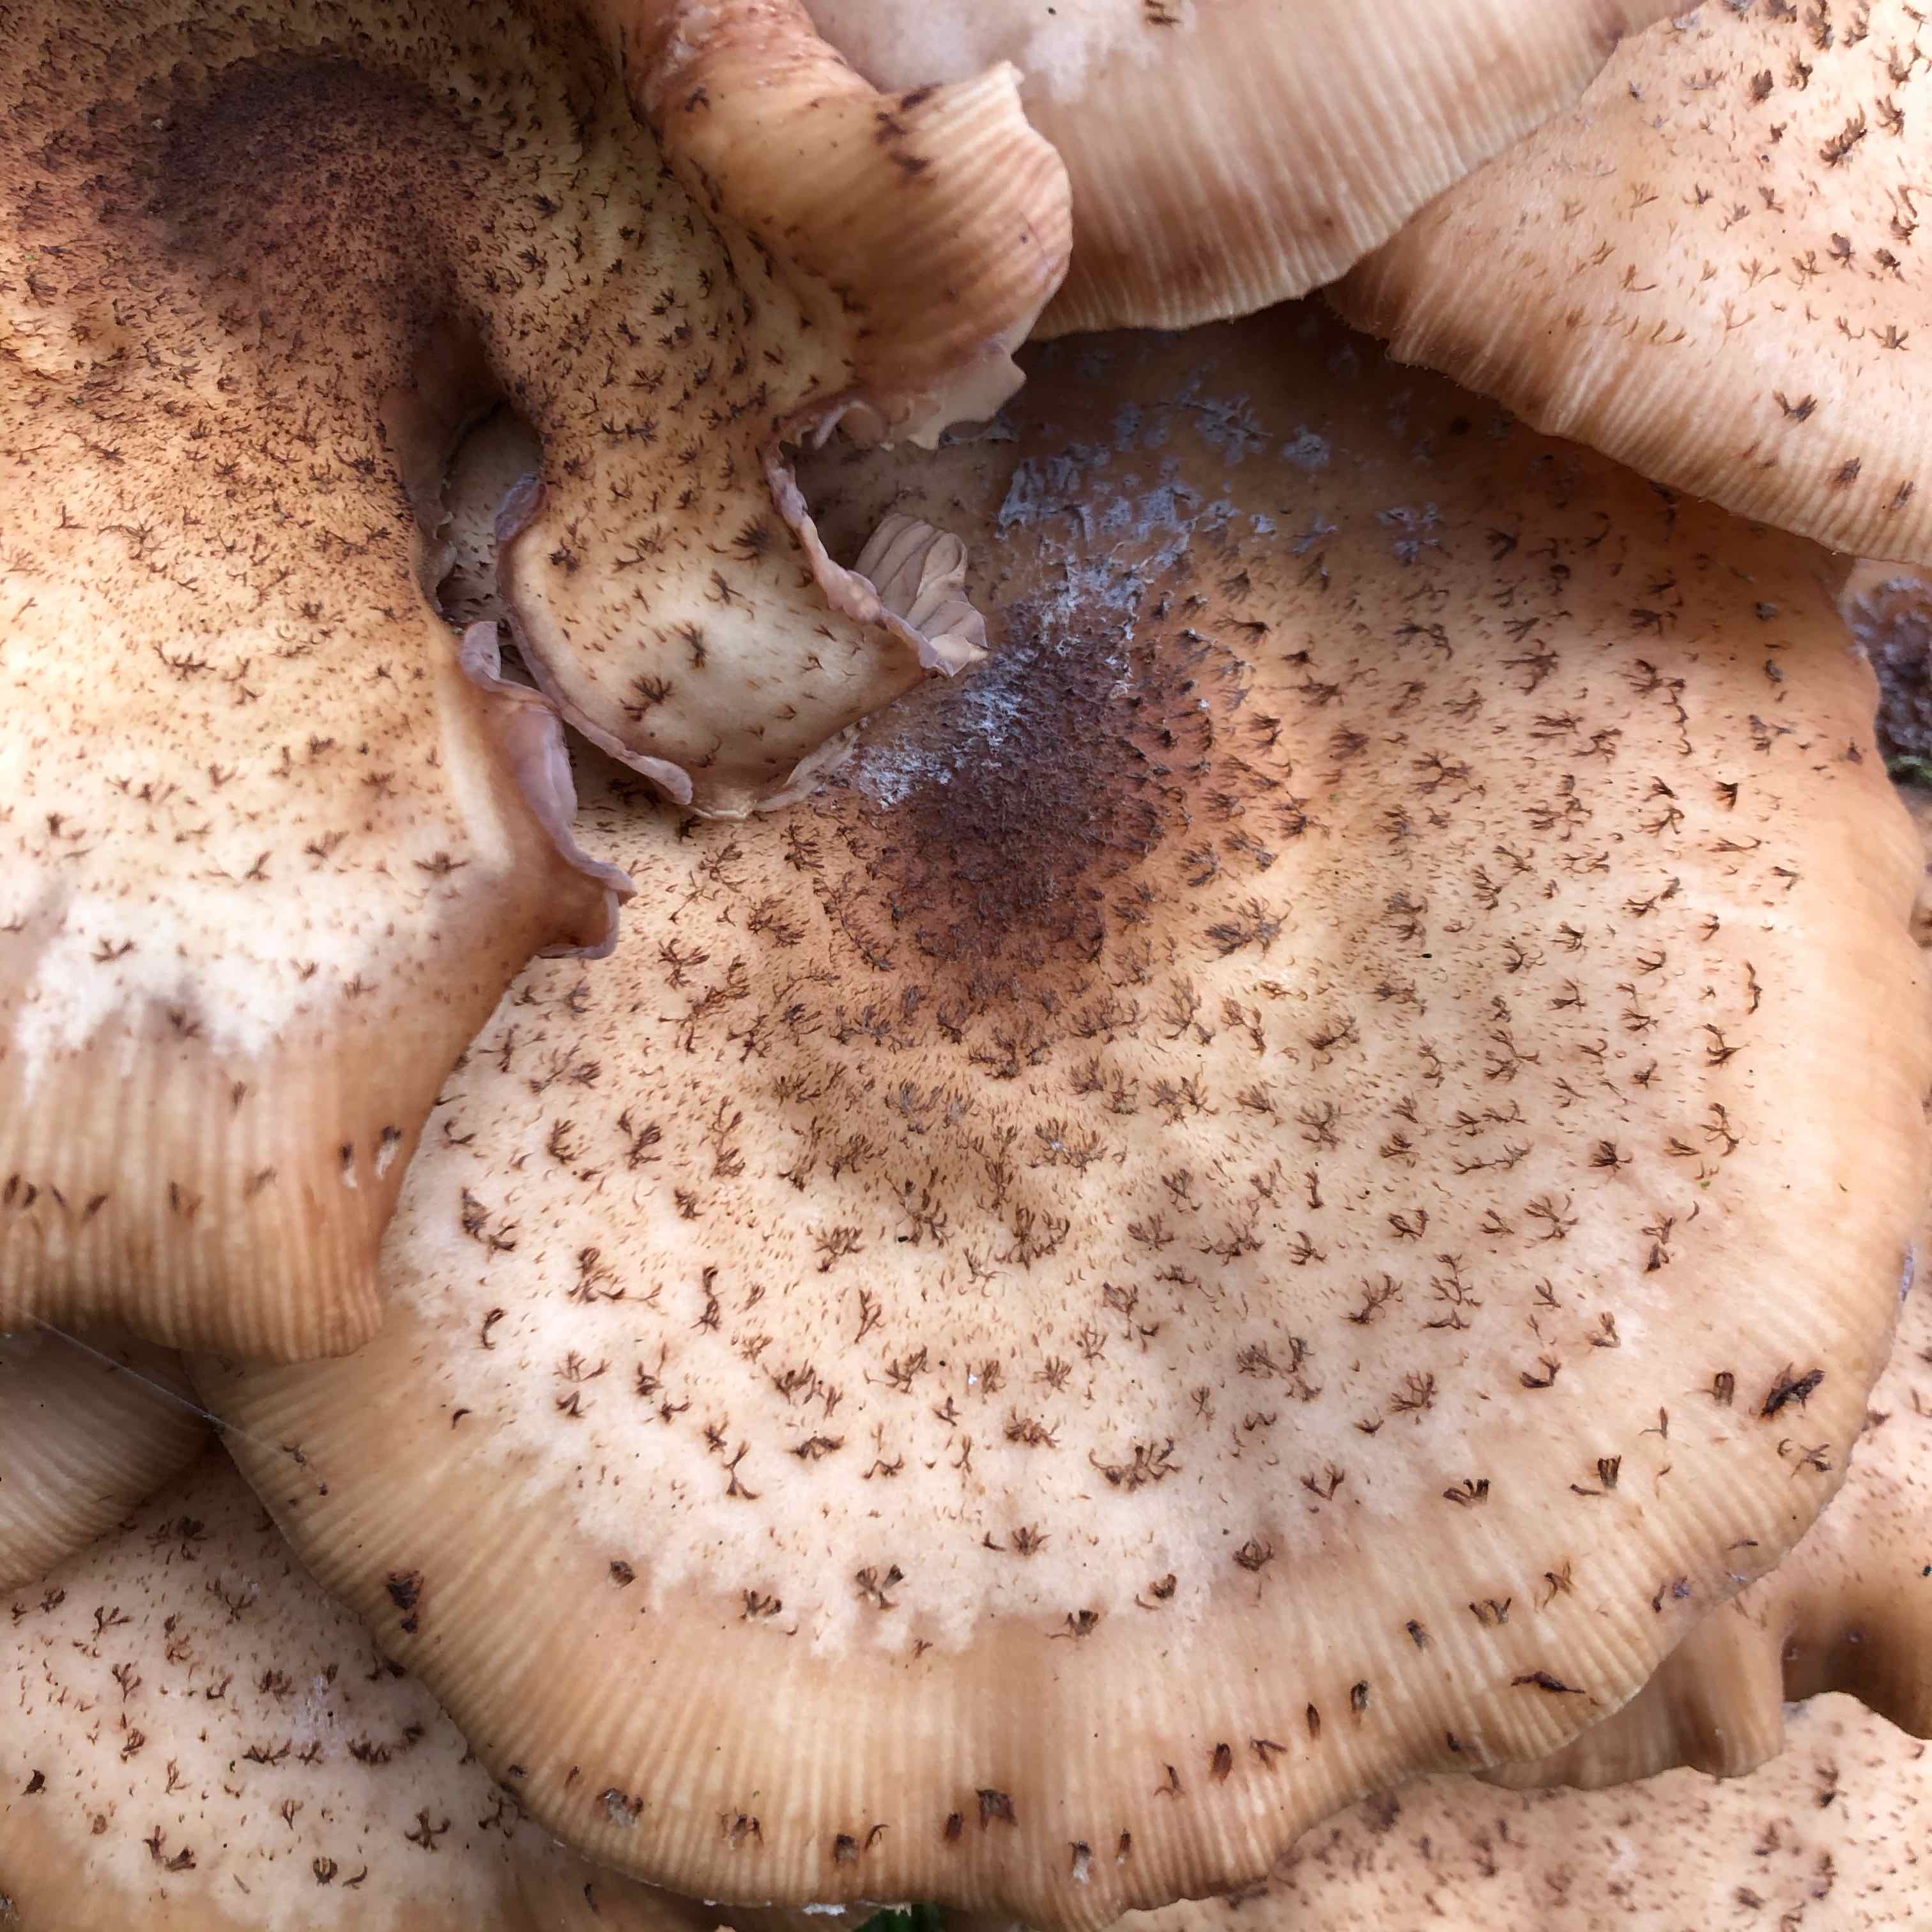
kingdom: Fungi
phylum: Basidiomycota
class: Agaricomycetes
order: Agaricales
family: Physalacriaceae
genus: Armillaria
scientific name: Armillaria ostoyae
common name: mørk honningsvamp
